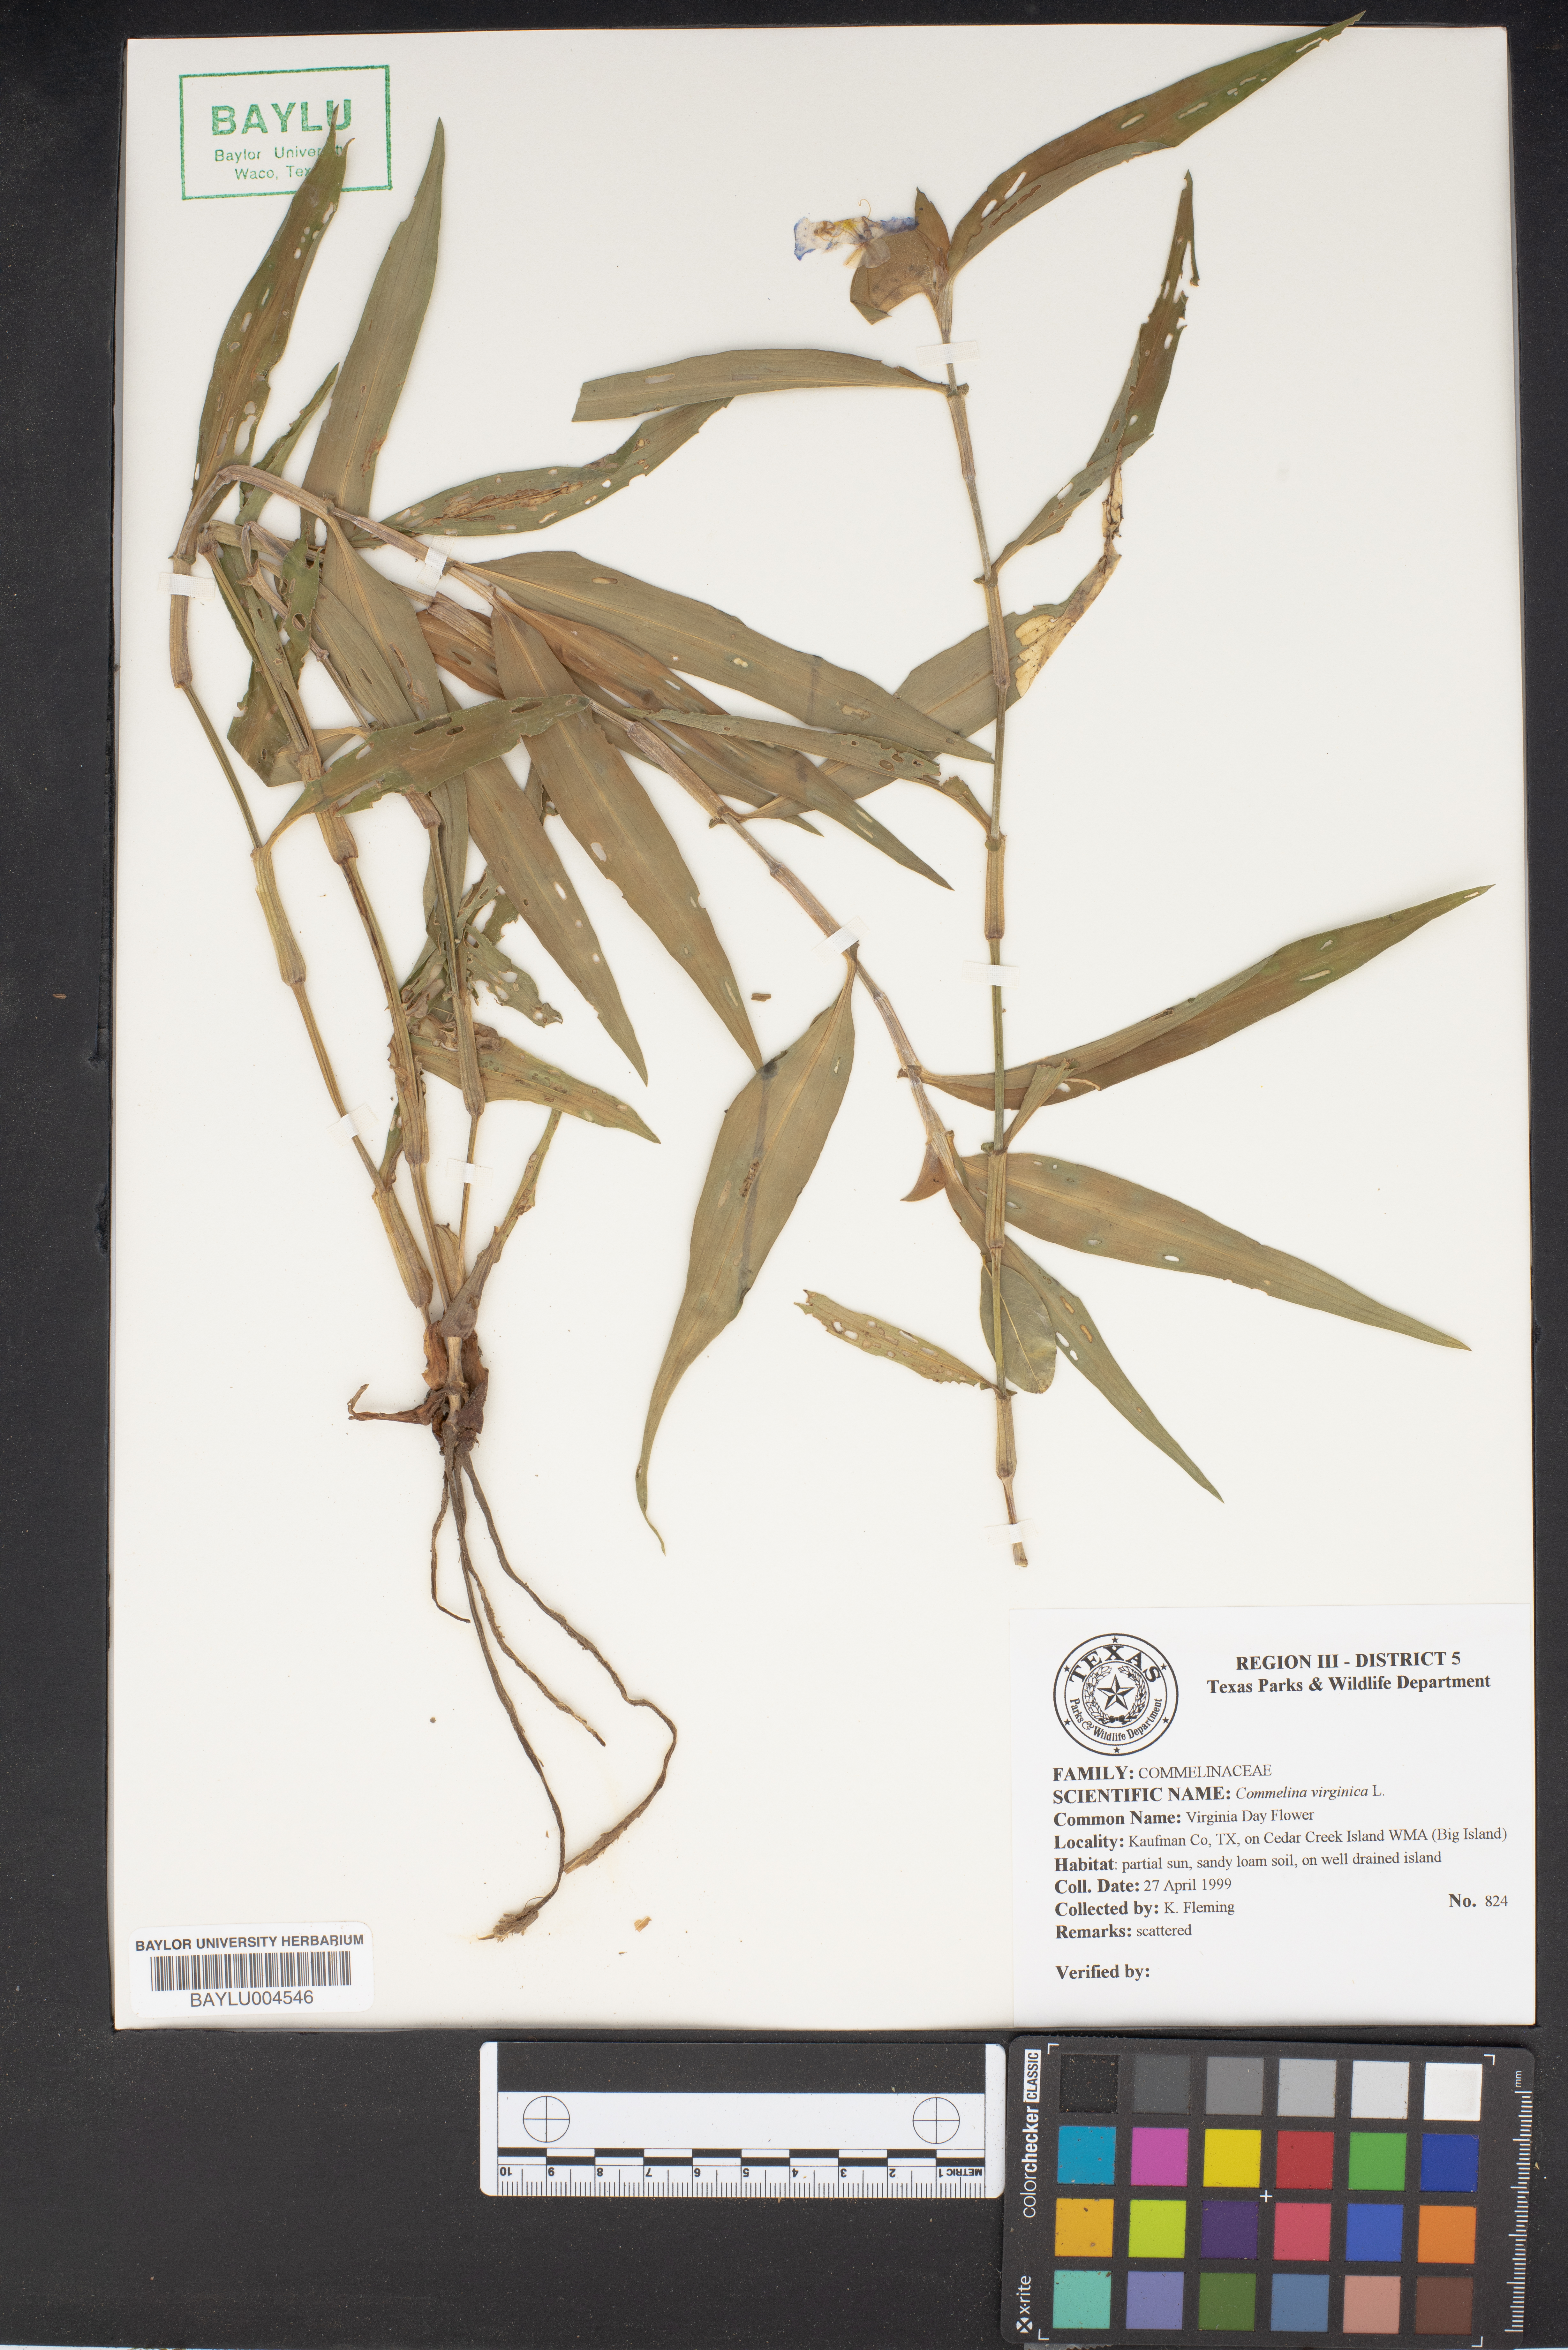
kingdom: Plantae
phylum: Tracheophyta
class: Liliopsida
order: Commelinales
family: Commelinaceae
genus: Commelina
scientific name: Commelina virginica
